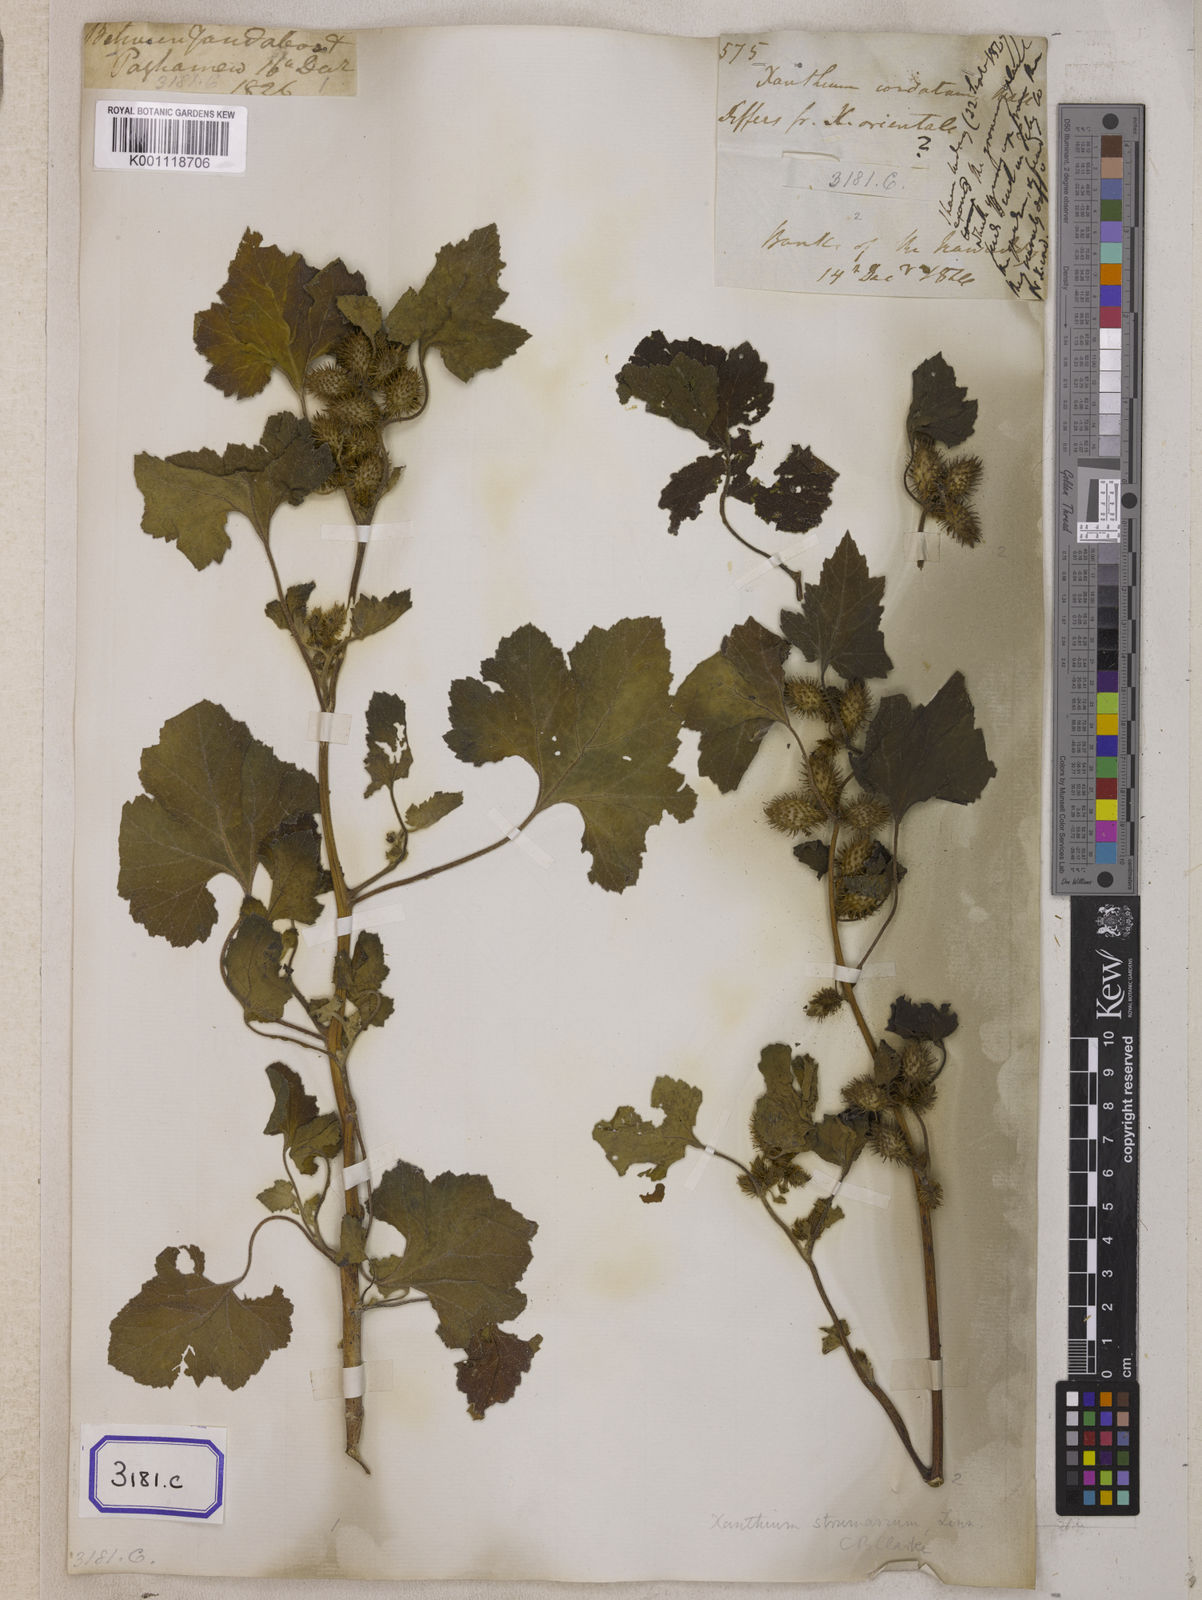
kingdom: Plantae
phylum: Tracheophyta
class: Magnoliopsida
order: Asterales
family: Asteraceae
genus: Xanthium
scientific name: Xanthium strumarium
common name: Rough cocklebur
